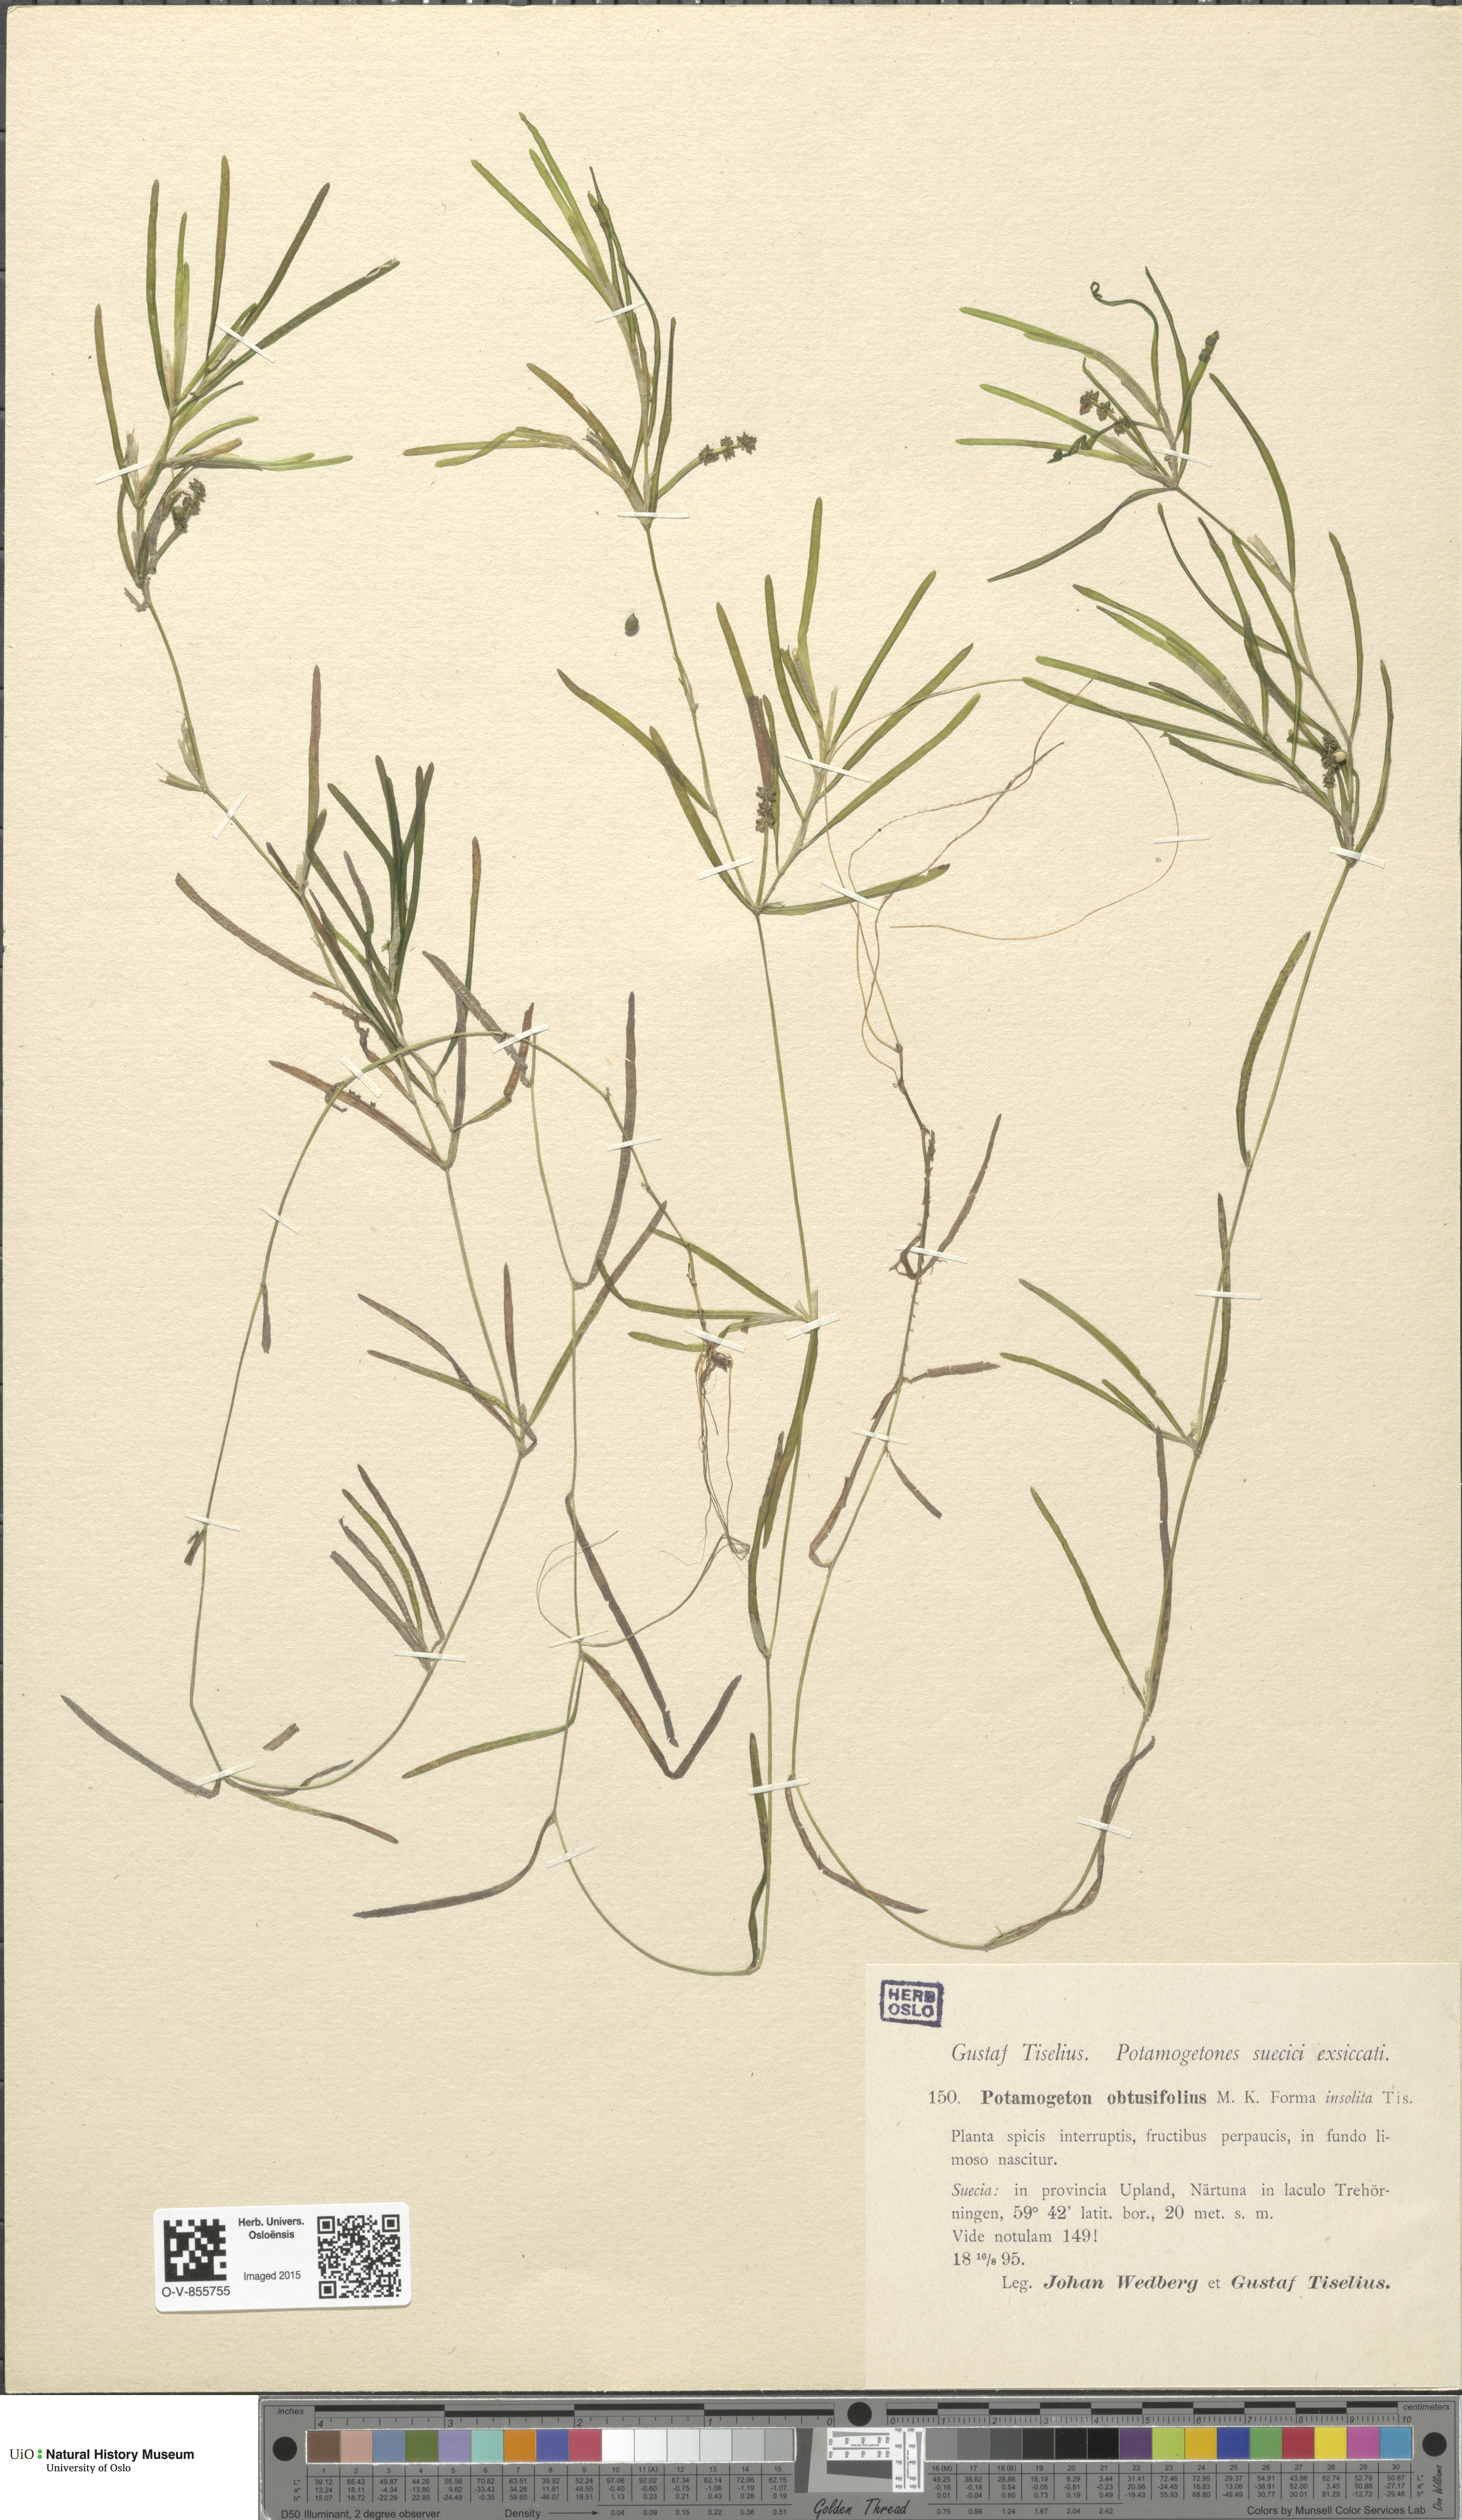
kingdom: Plantae
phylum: Tracheophyta
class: Liliopsida
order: Alismatales
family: Potamogetonaceae
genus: Potamogeton
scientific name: Potamogeton obtusifolius
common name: Blunt-leaved pondweed
